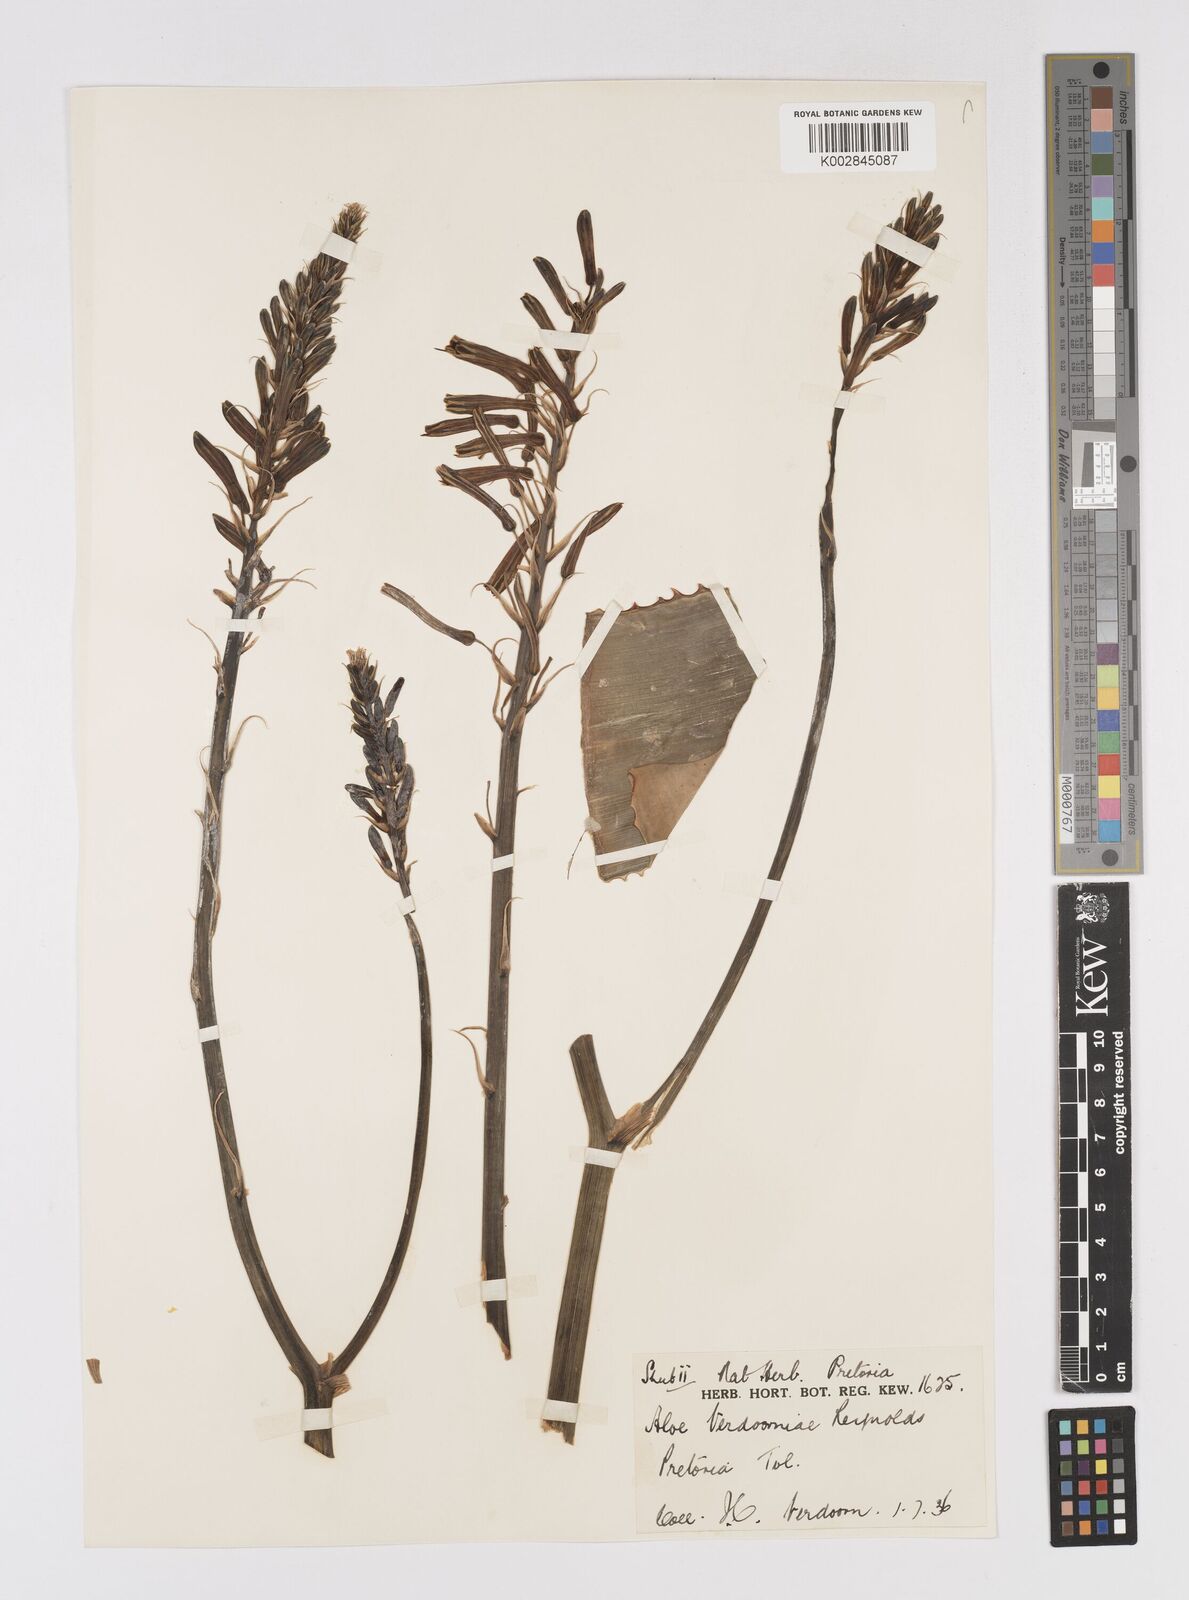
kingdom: Plantae
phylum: Tracheophyta
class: Liliopsida
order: Asparagales
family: Asphodelaceae
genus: Aloe
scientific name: Aloe davyana
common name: Spotted aloe
